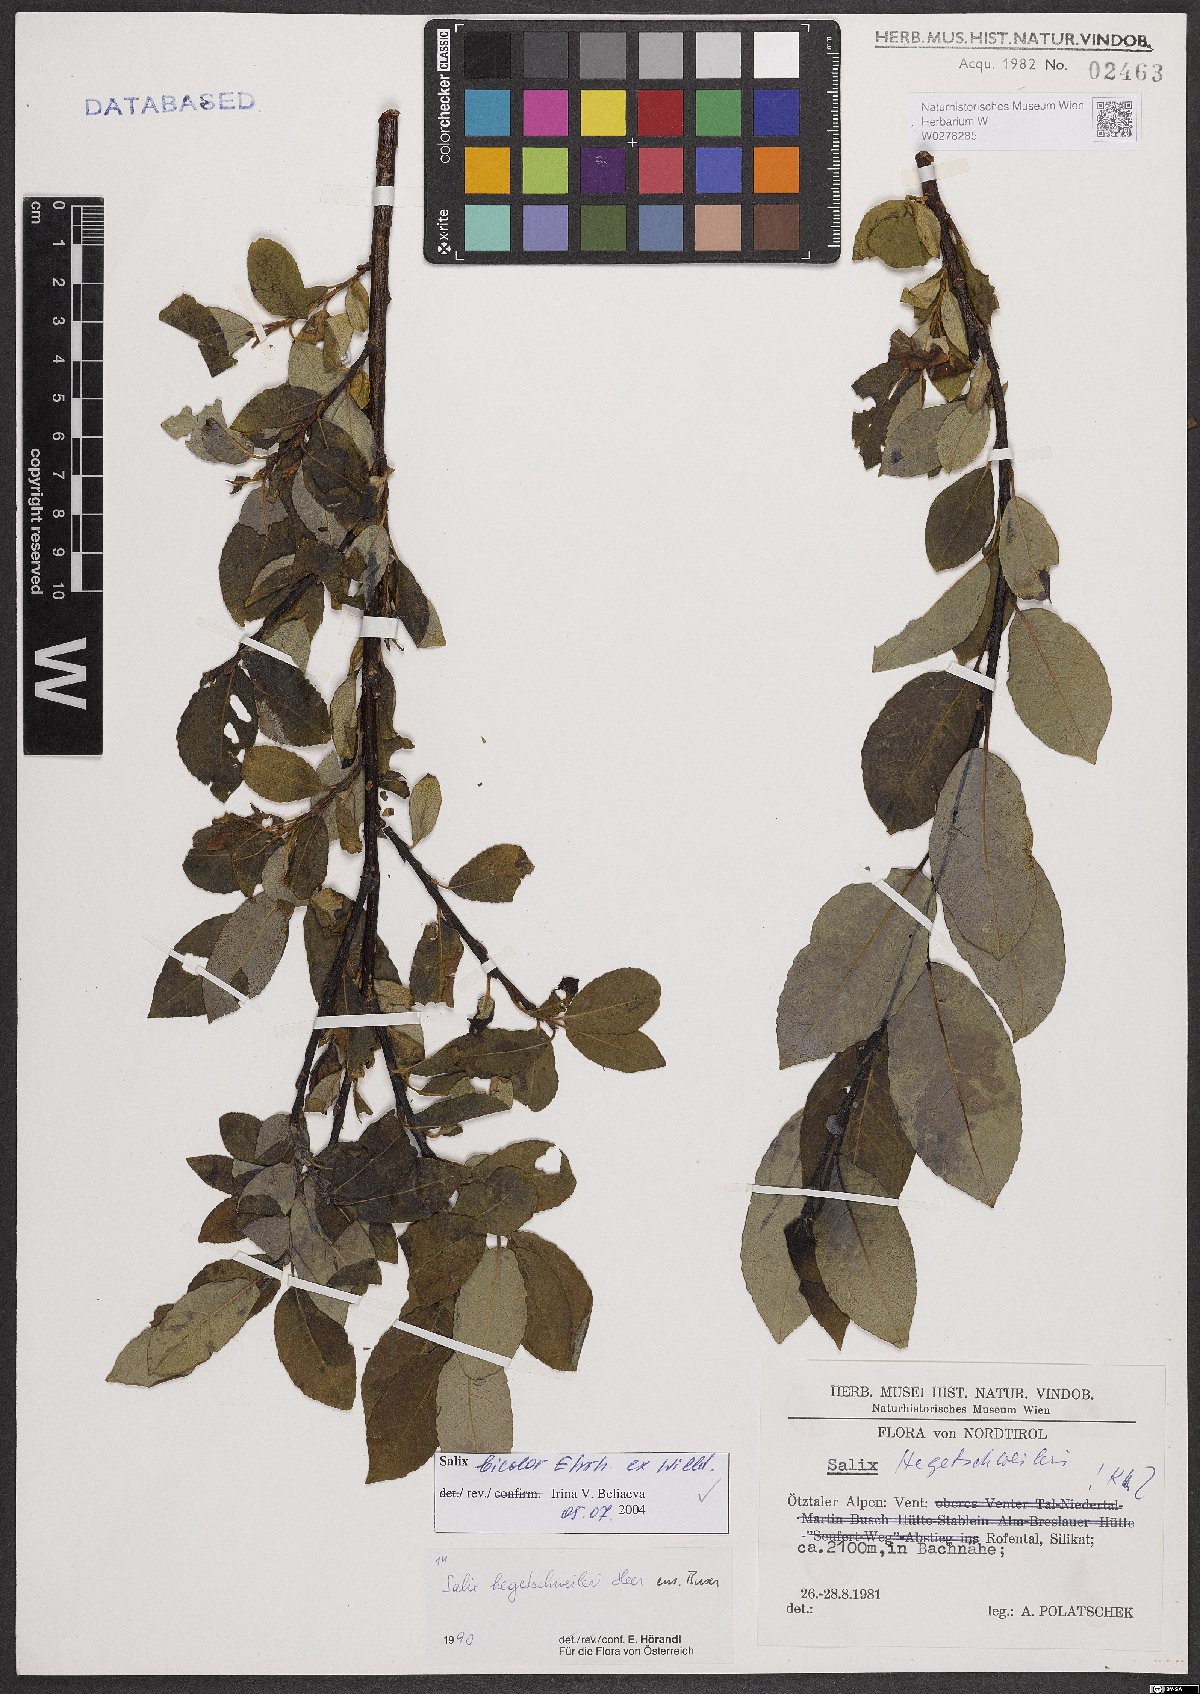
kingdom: Plantae
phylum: Tracheophyta
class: Magnoliopsida
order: Malpighiales
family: Salicaceae
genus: Salix
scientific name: Salix bicolor
